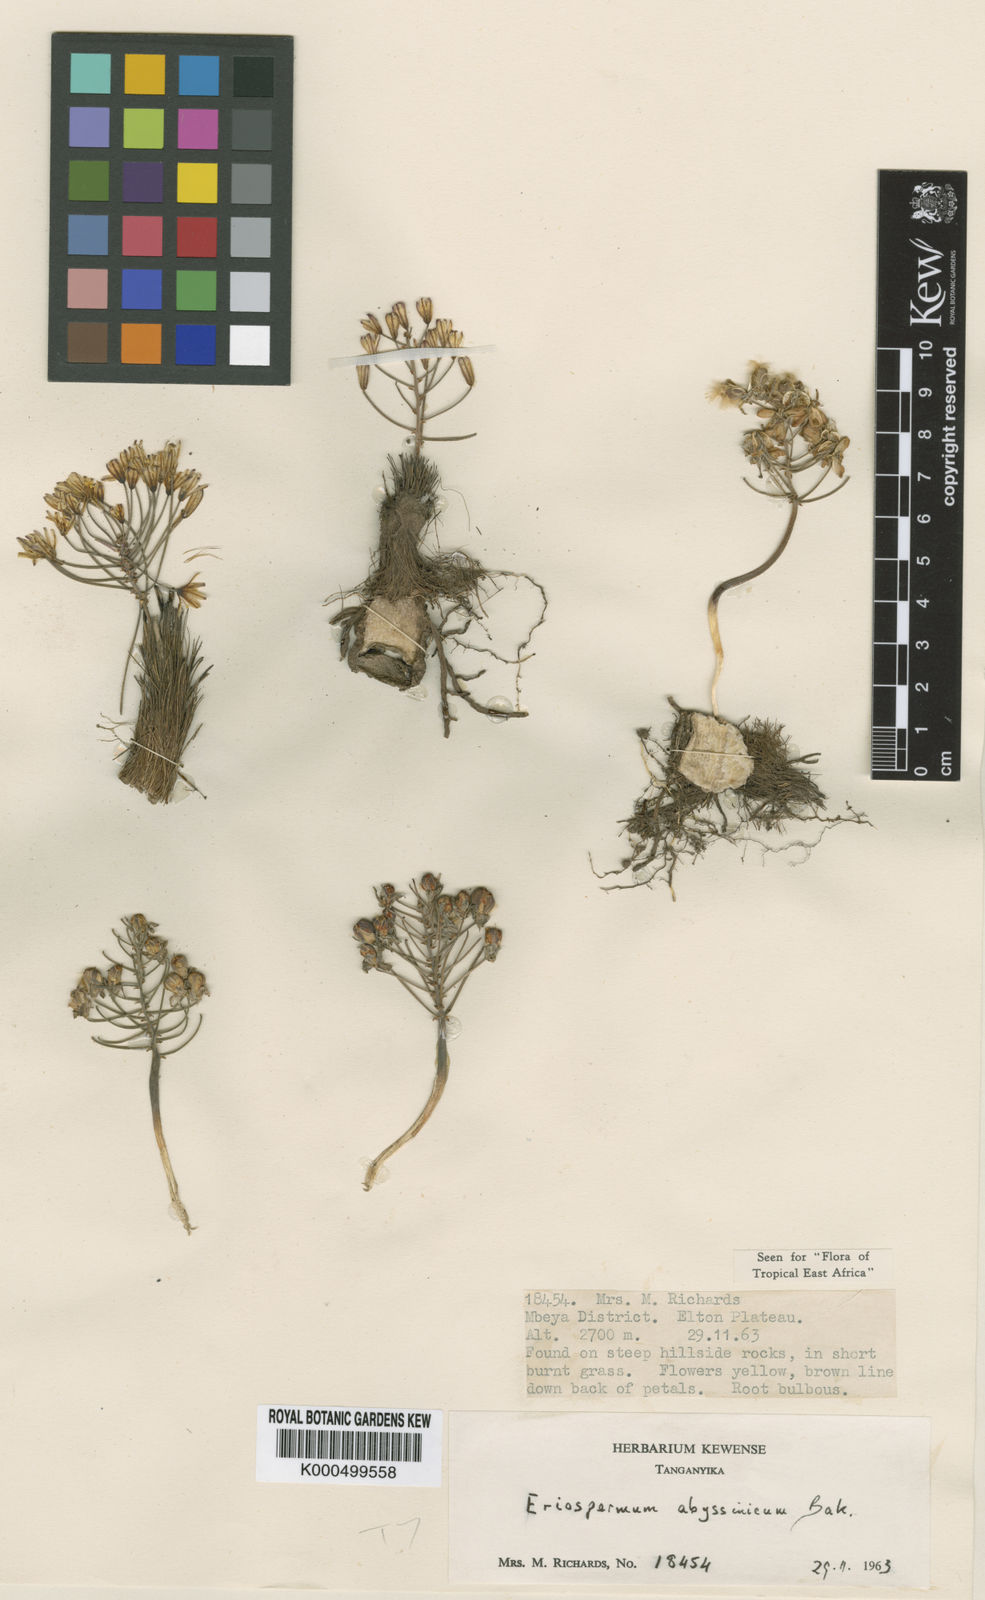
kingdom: Plantae
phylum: Tracheophyta
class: Liliopsida
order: Asparagales
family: Asparagaceae
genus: Eriospermum
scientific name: Eriospermum abyssinicum
